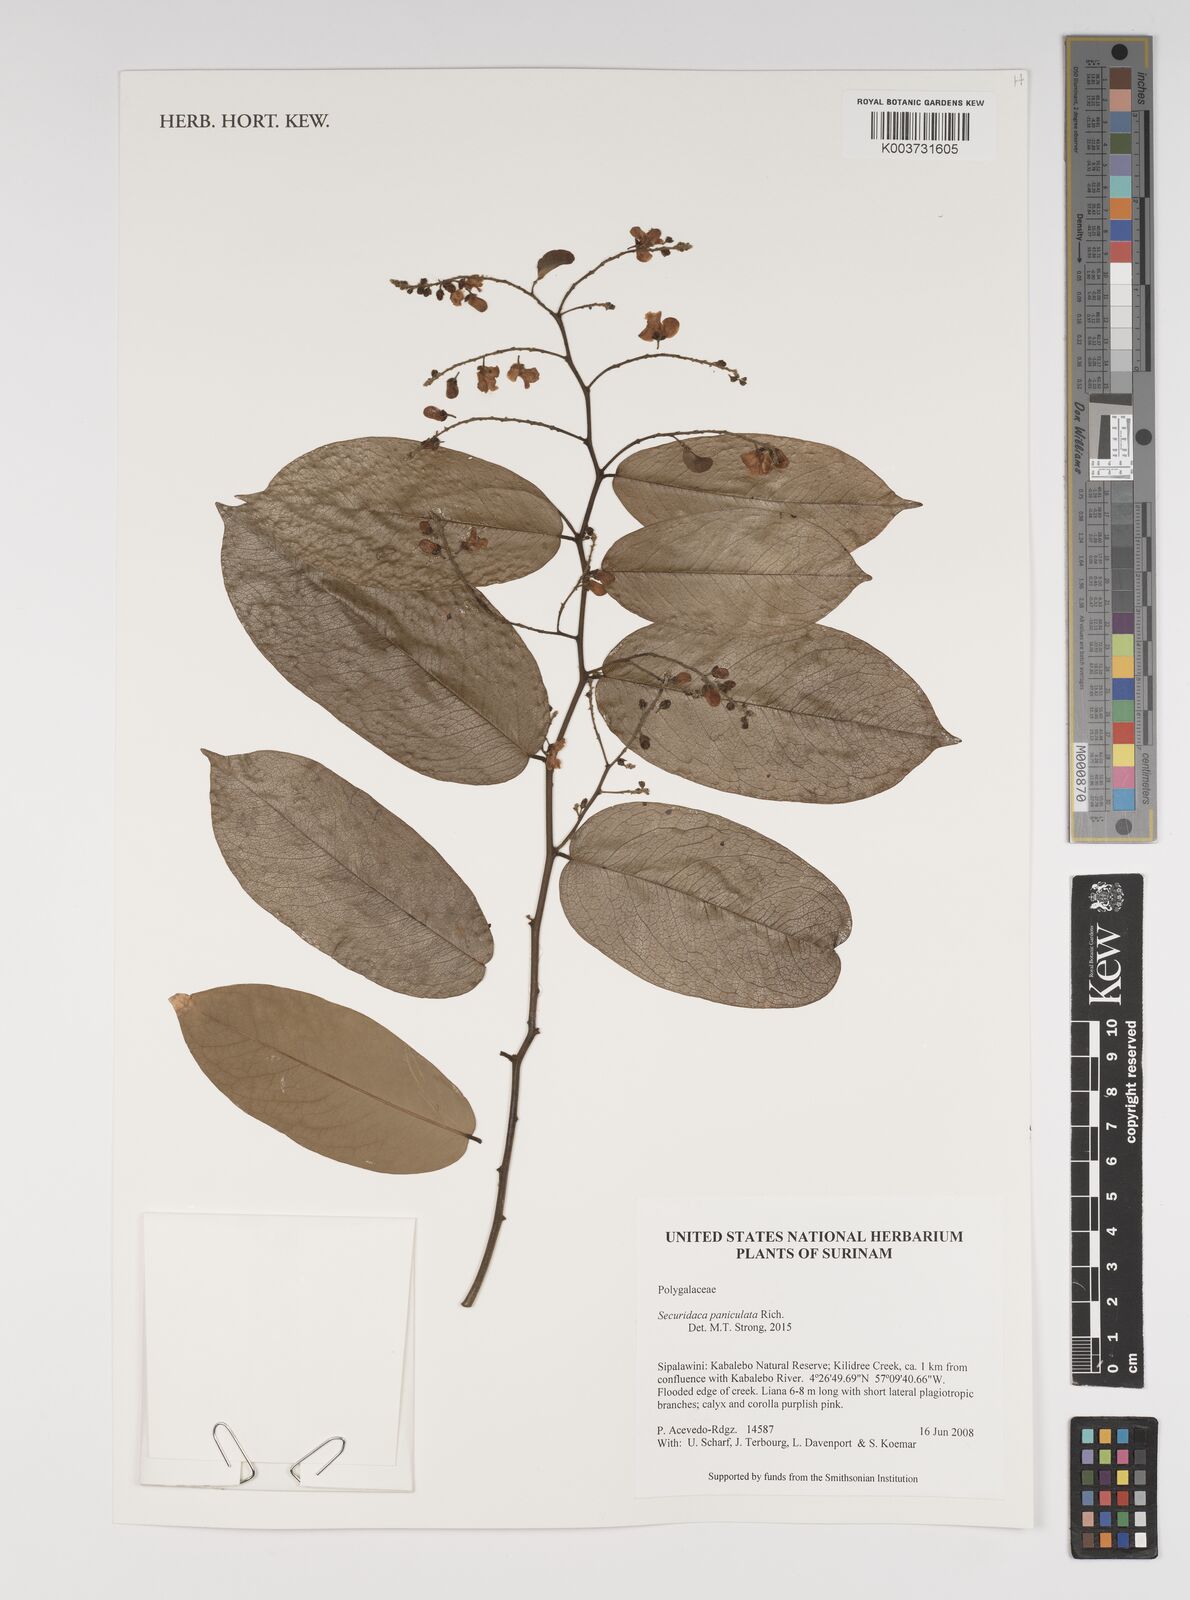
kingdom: Plantae
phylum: Tracheophyta
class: Magnoliopsida
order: Fabales
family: Polygalaceae
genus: Securidaca
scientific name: Securidaca paniculata
